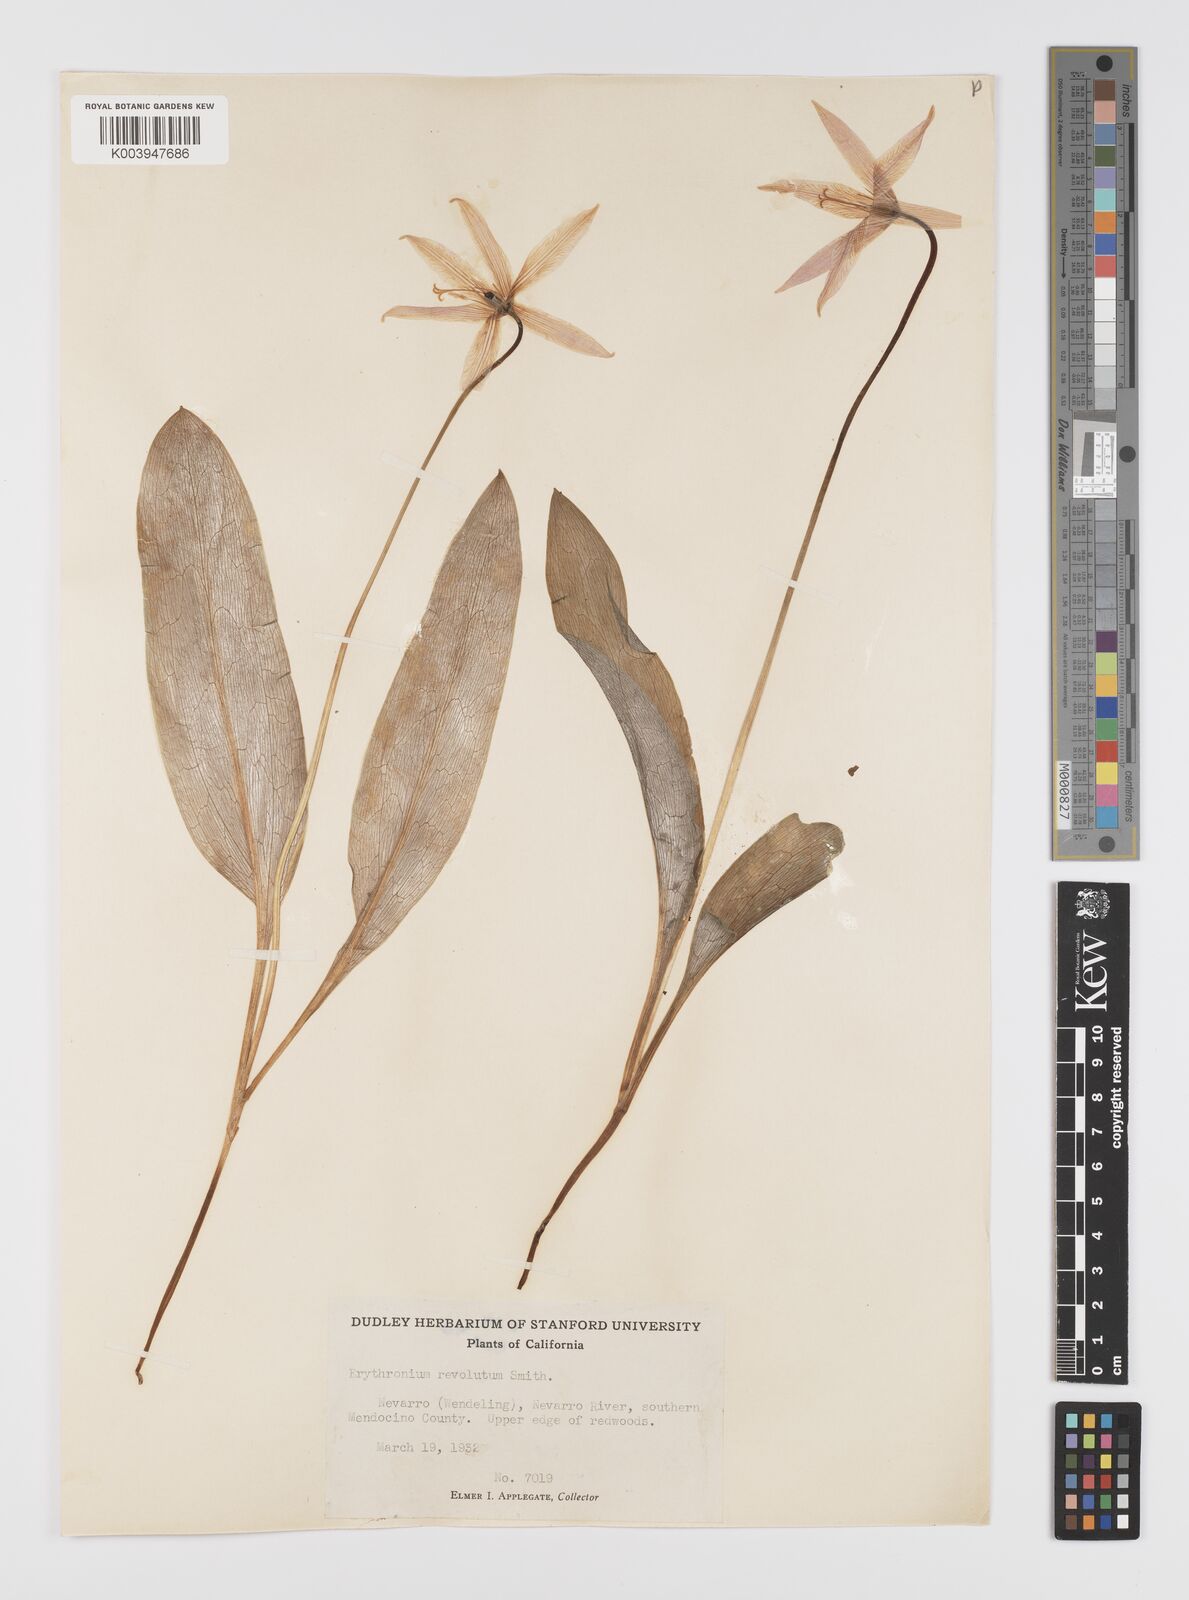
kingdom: Plantae
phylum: Tracheophyta
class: Liliopsida
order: Liliales
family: Liliaceae
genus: Erythronium
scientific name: Erythronium purpurascens
